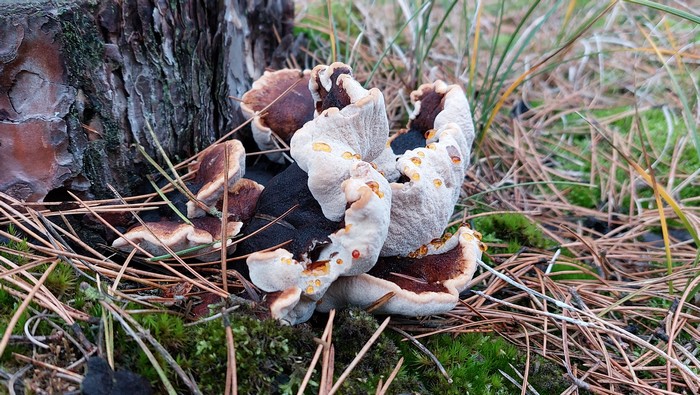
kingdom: Fungi
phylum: Basidiomycota
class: Agaricomycetes
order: Polyporales
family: Ischnodermataceae
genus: Ischnoderma
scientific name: Ischnoderma benzoinum
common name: gran-tjæreporesvamp
